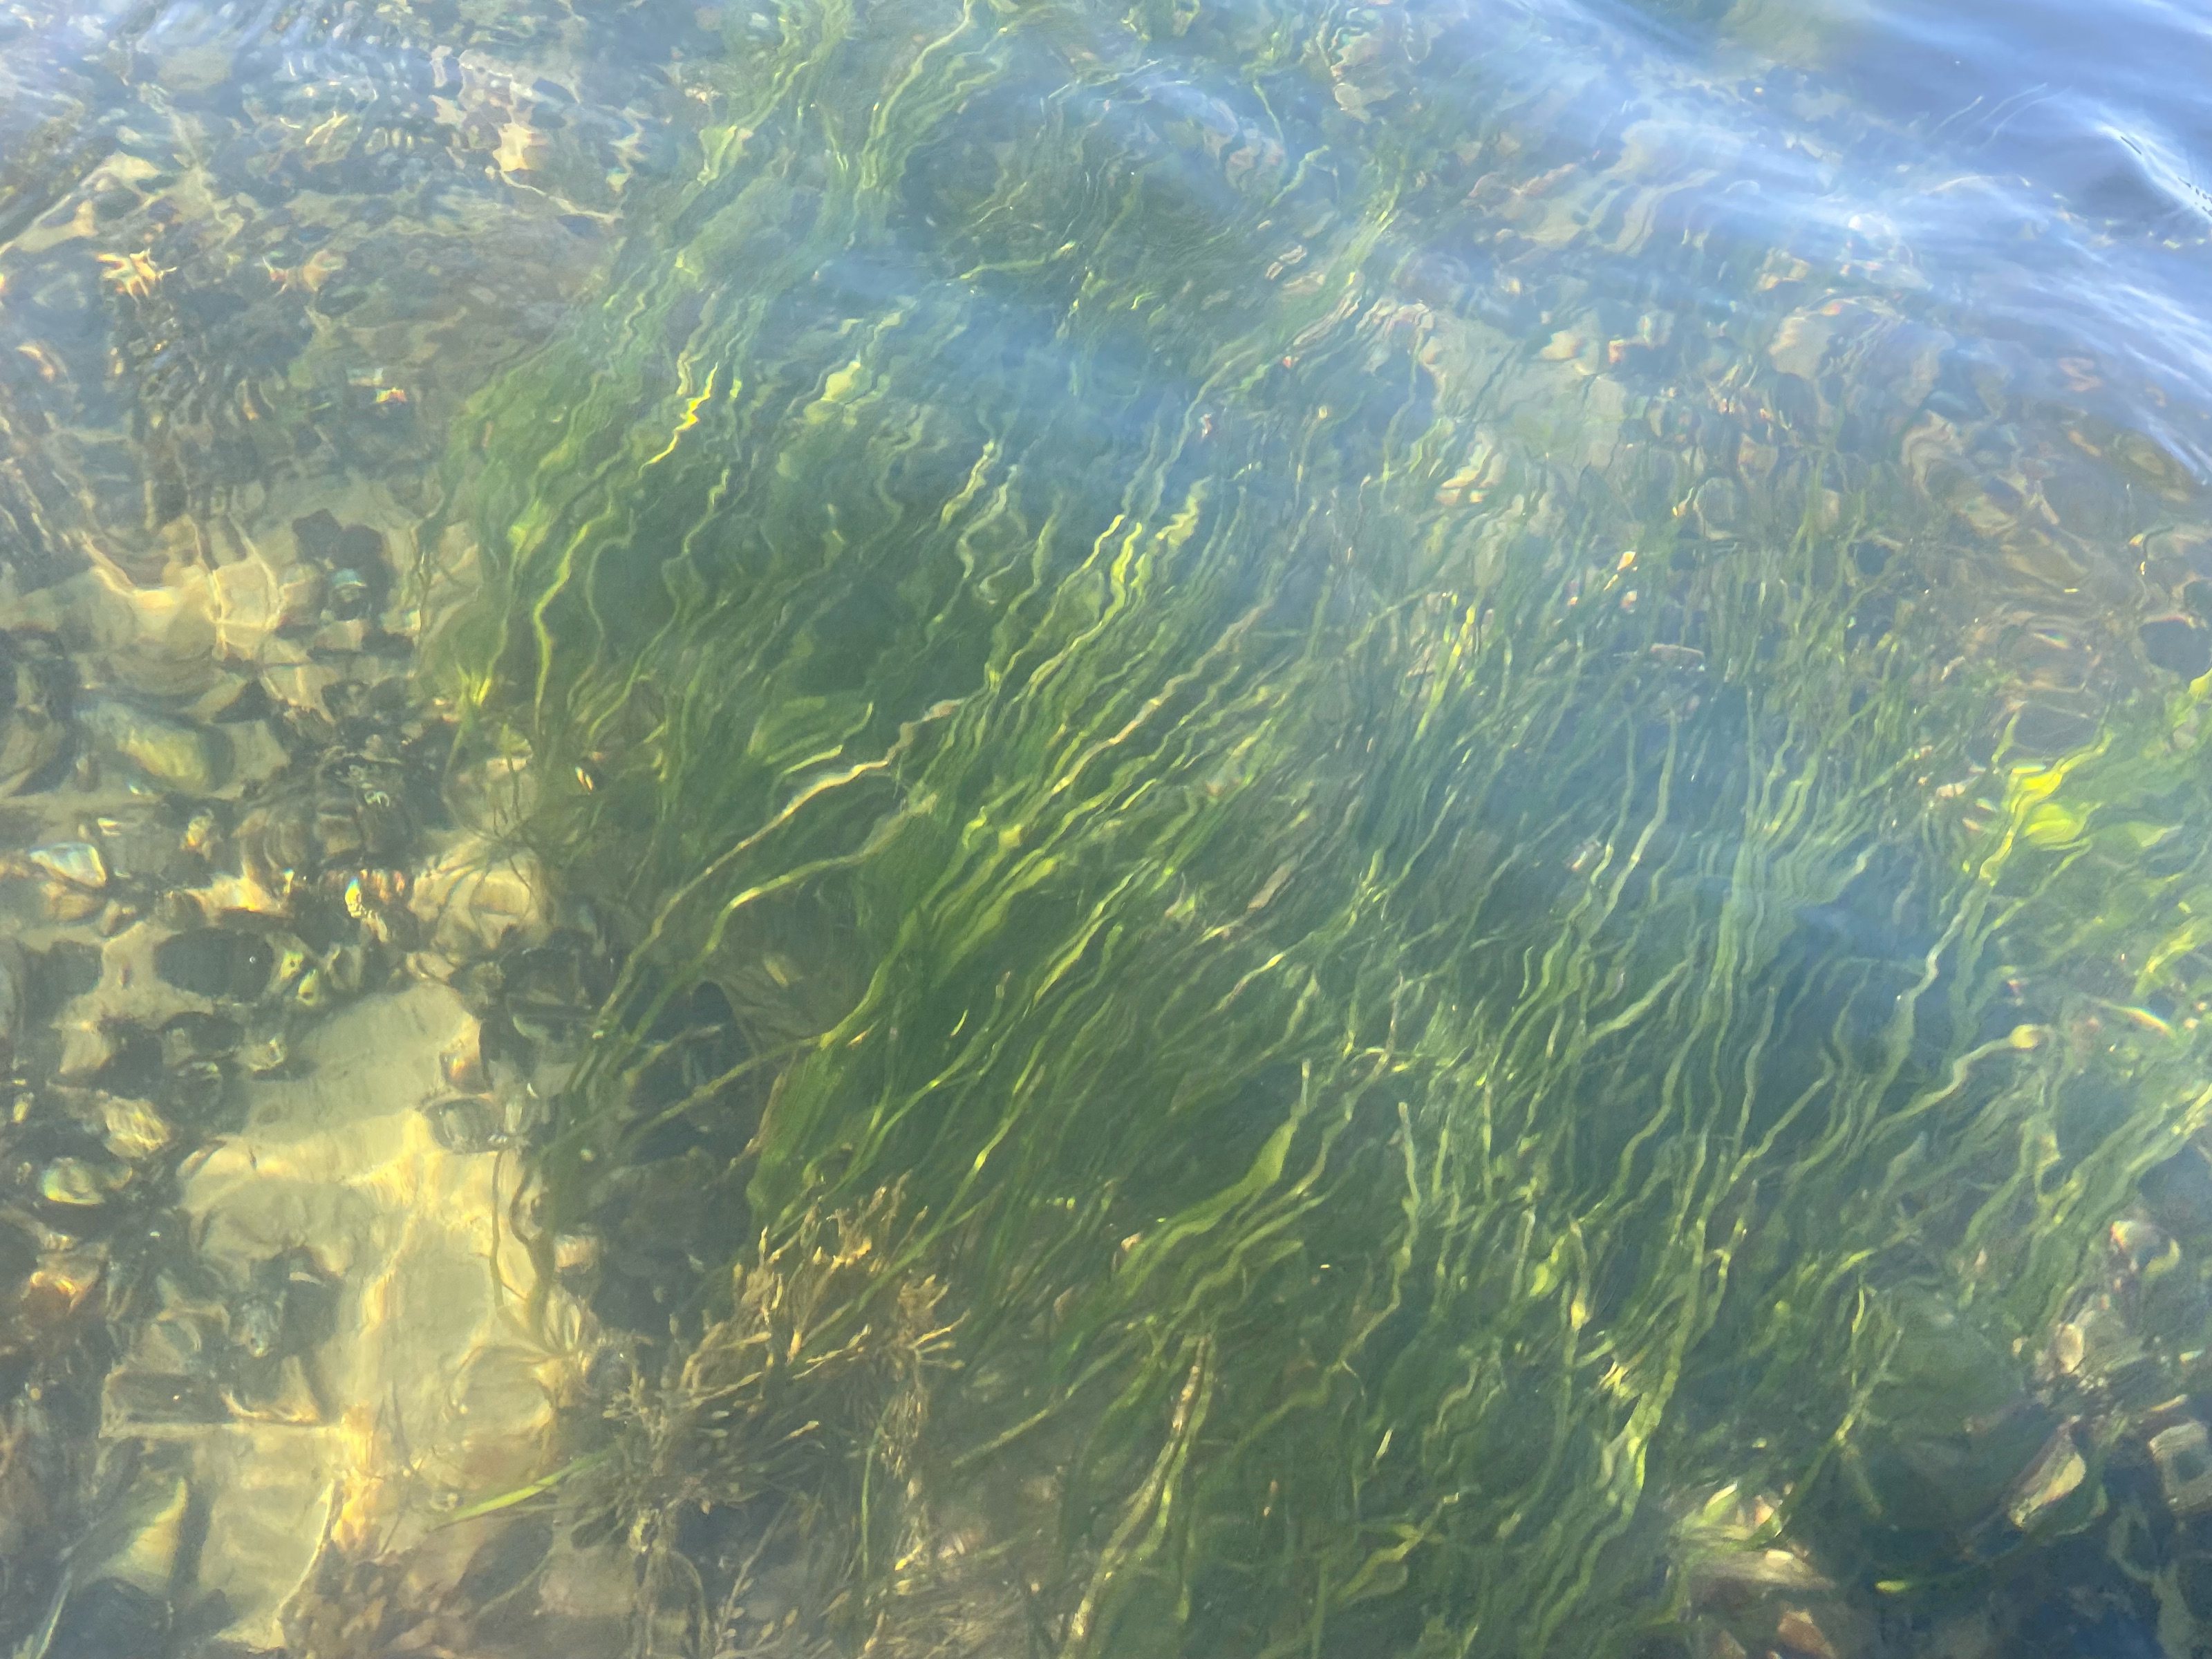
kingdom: Plantae
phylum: Tracheophyta
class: Liliopsida
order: Alismatales
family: Zosteraceae
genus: Zostera
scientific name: Zostera marina
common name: Eelgrass
